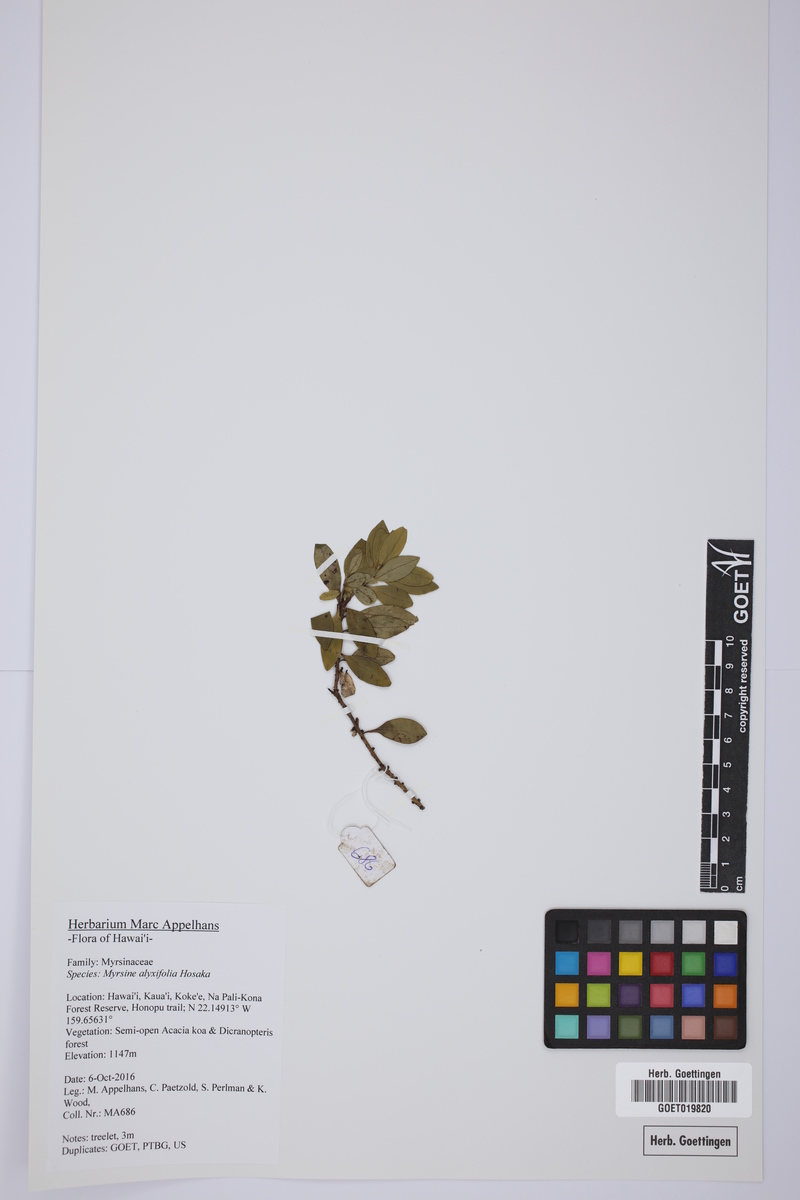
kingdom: Plantae
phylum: Tracheophyta
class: Magnoliopsida
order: Ericales
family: Primulaceae
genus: Myrsine
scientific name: Myrsine alyxifolia
